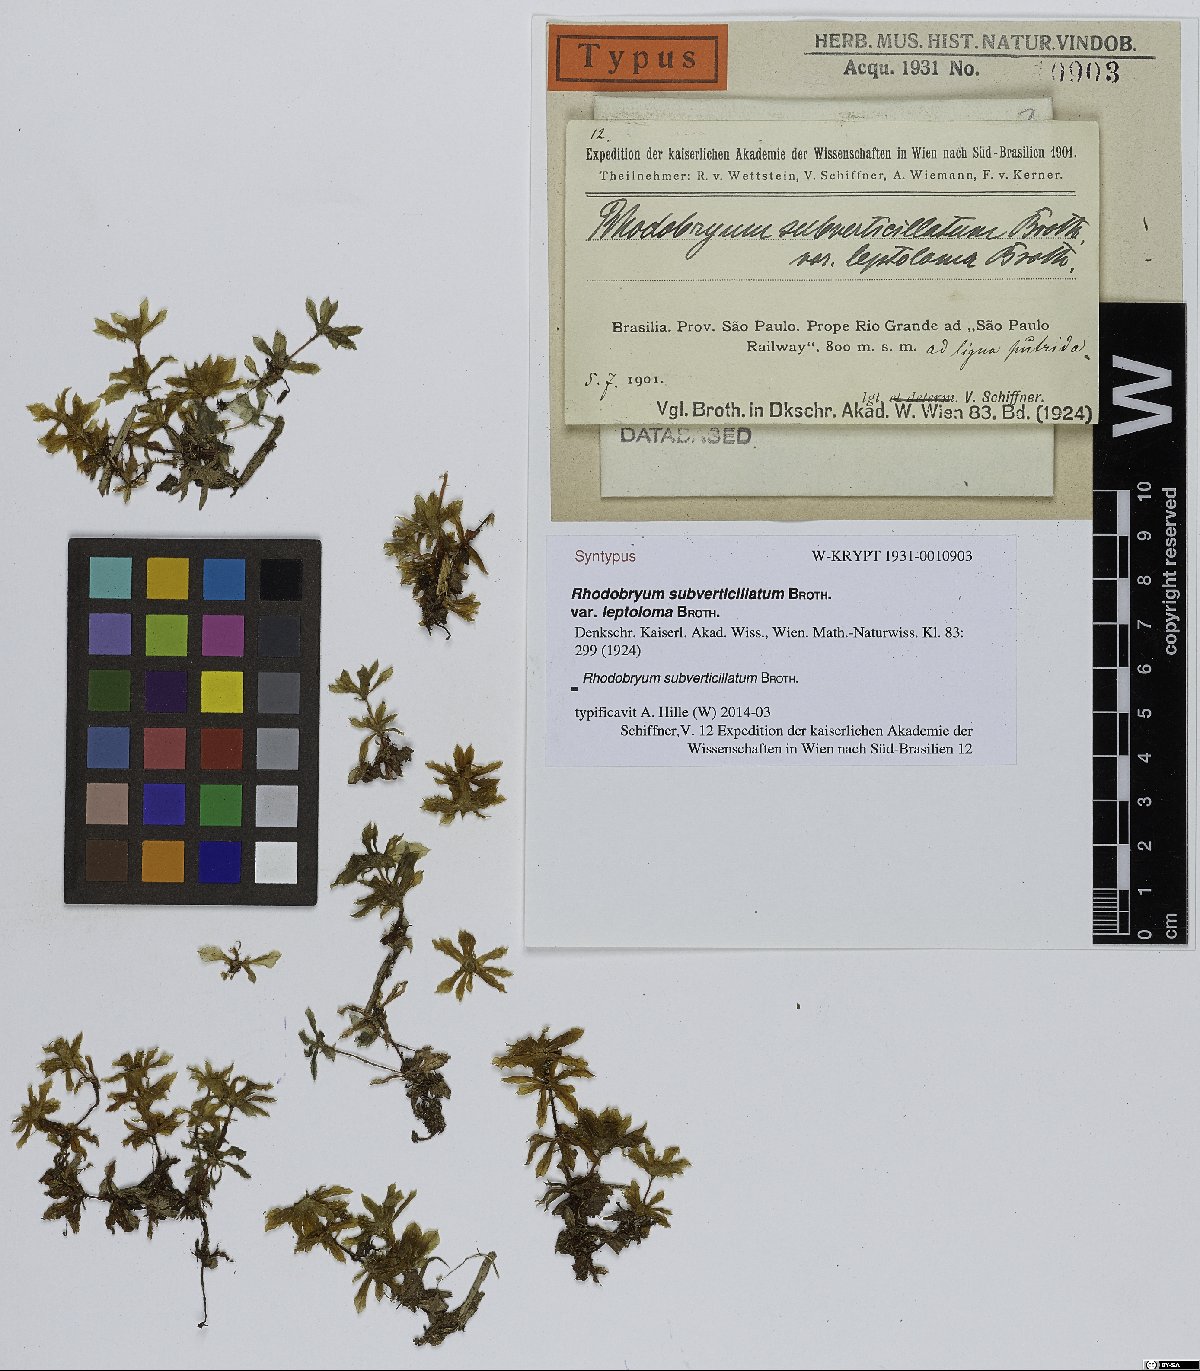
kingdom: Plantae
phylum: Bryophyta
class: Bryopsida
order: Bryales
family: Bryaceae
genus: Rhodobryum
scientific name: Rhodobryum beyrichianum
